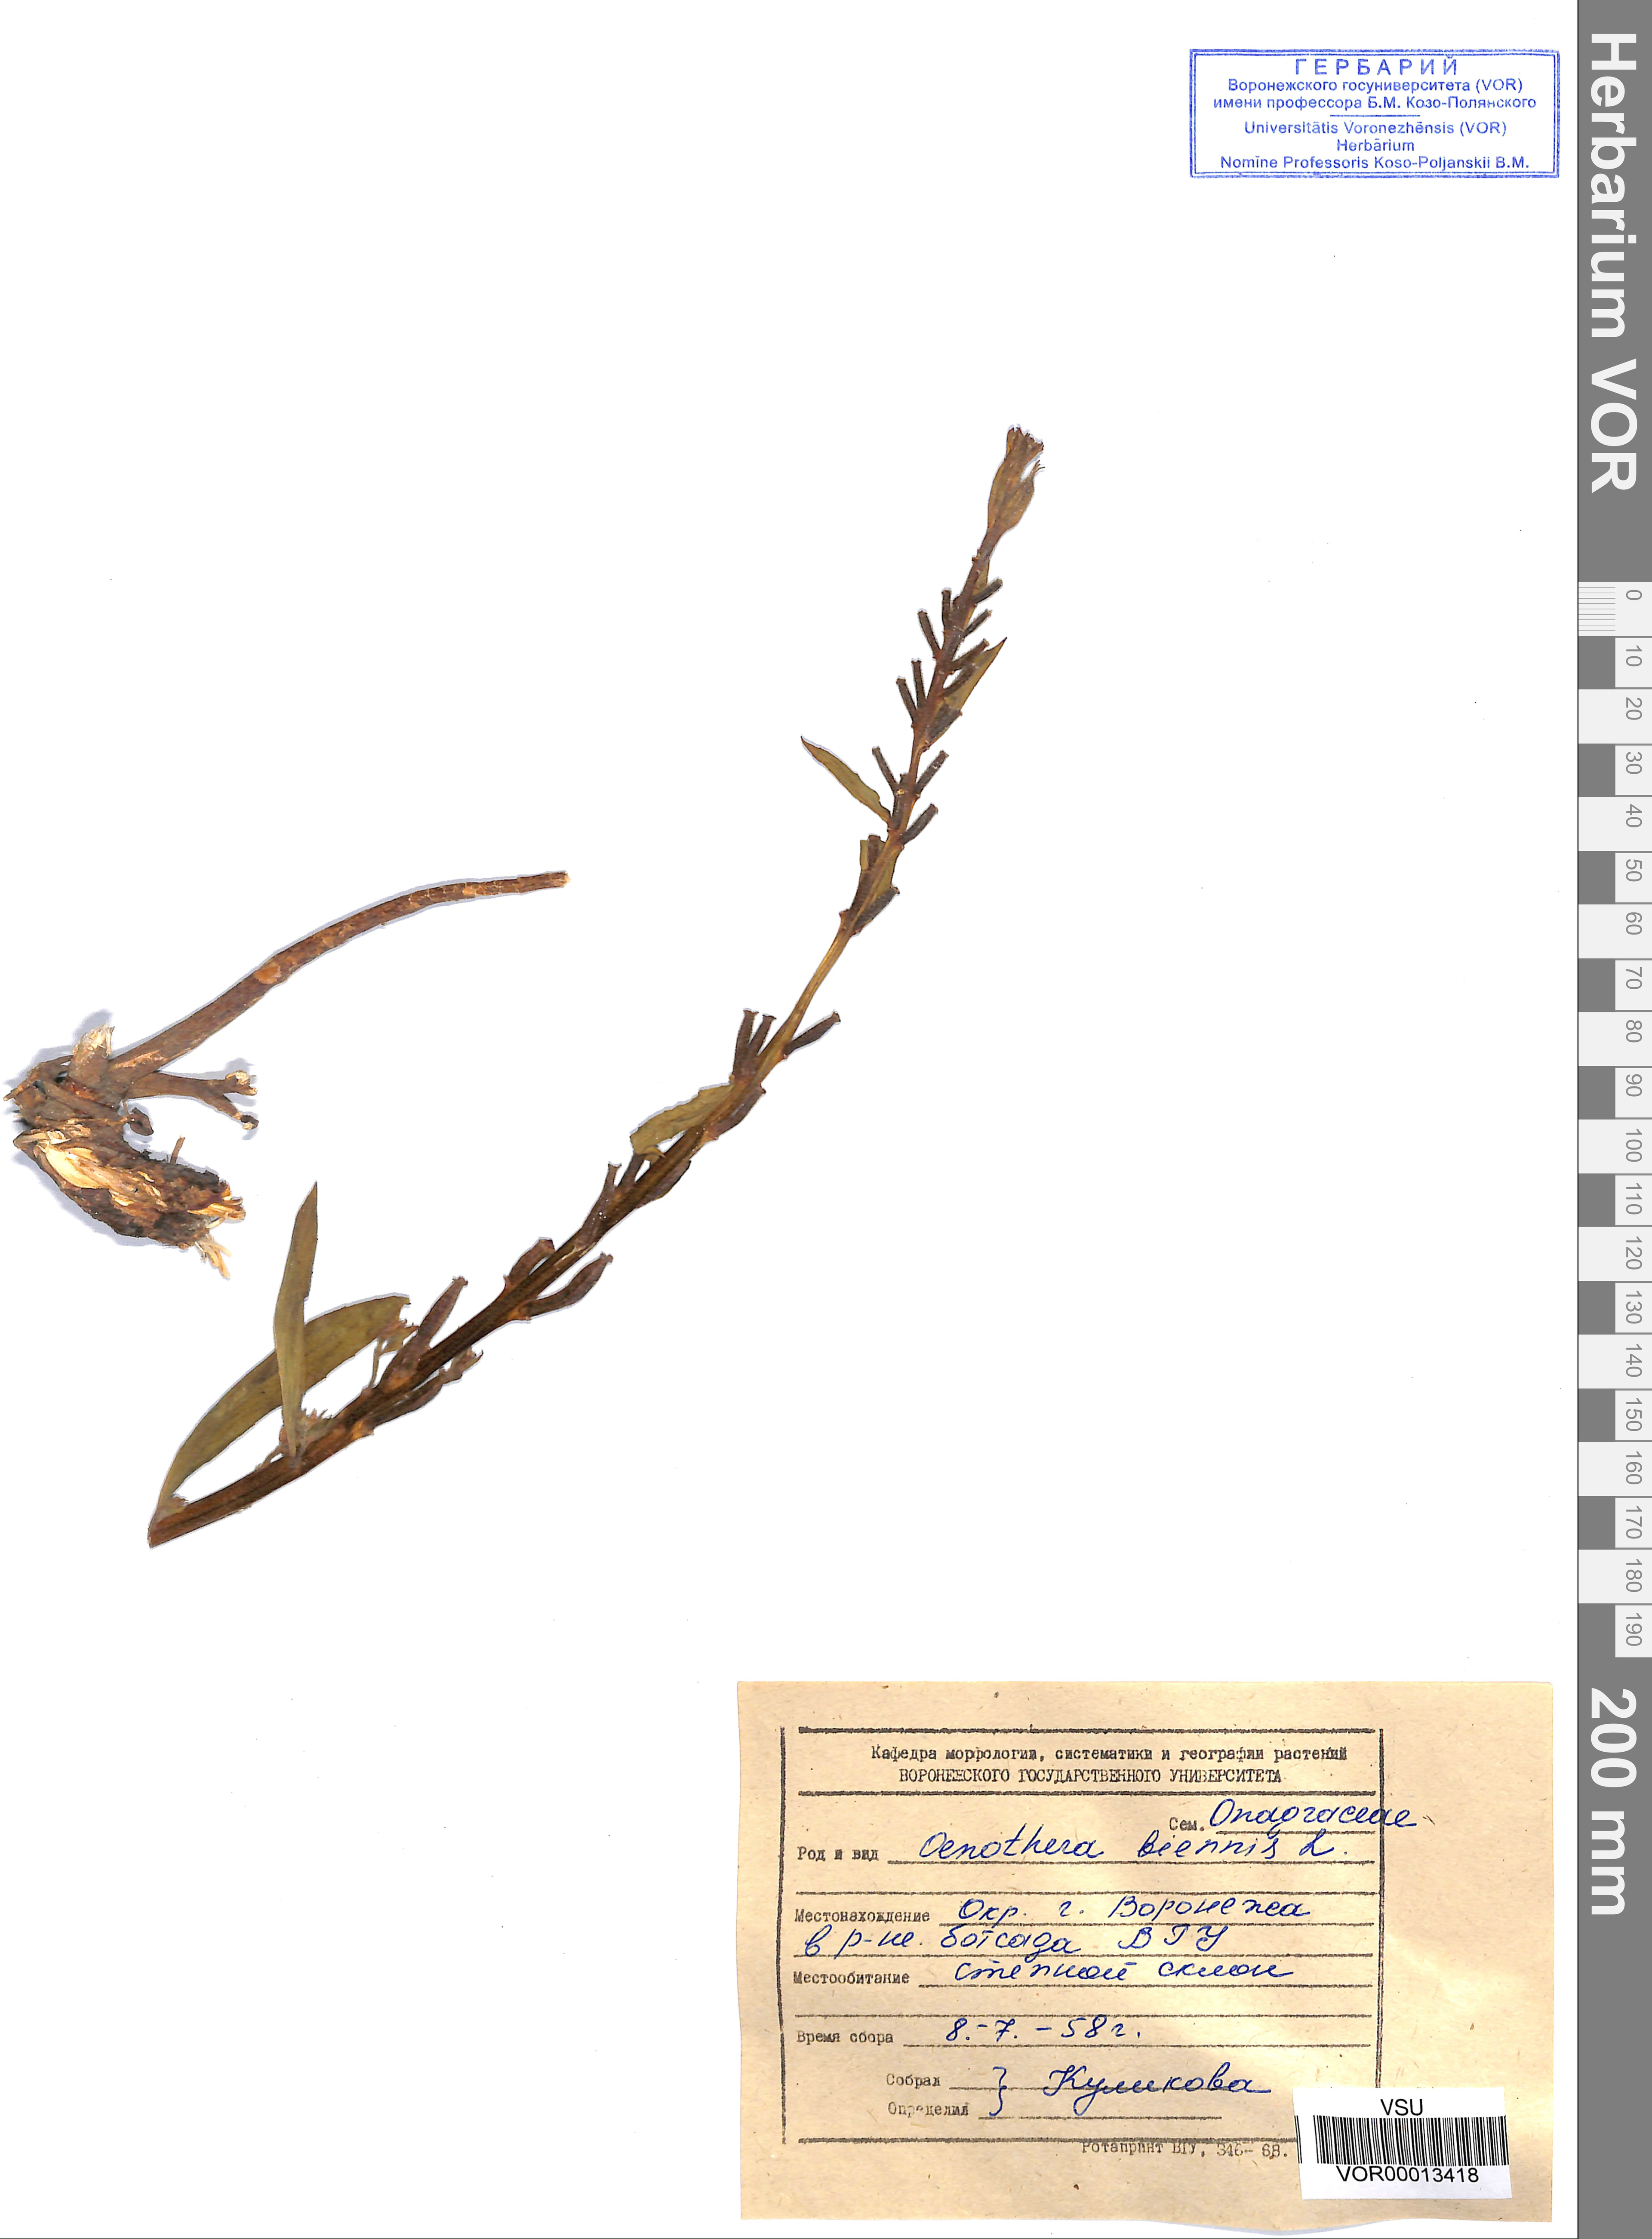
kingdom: Plantae
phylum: Tracheophyta
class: Magnoliopsida
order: Myrtales
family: Onagraceae
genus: Oenothera
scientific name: Oenothera biennis
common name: Common evening-primrose
